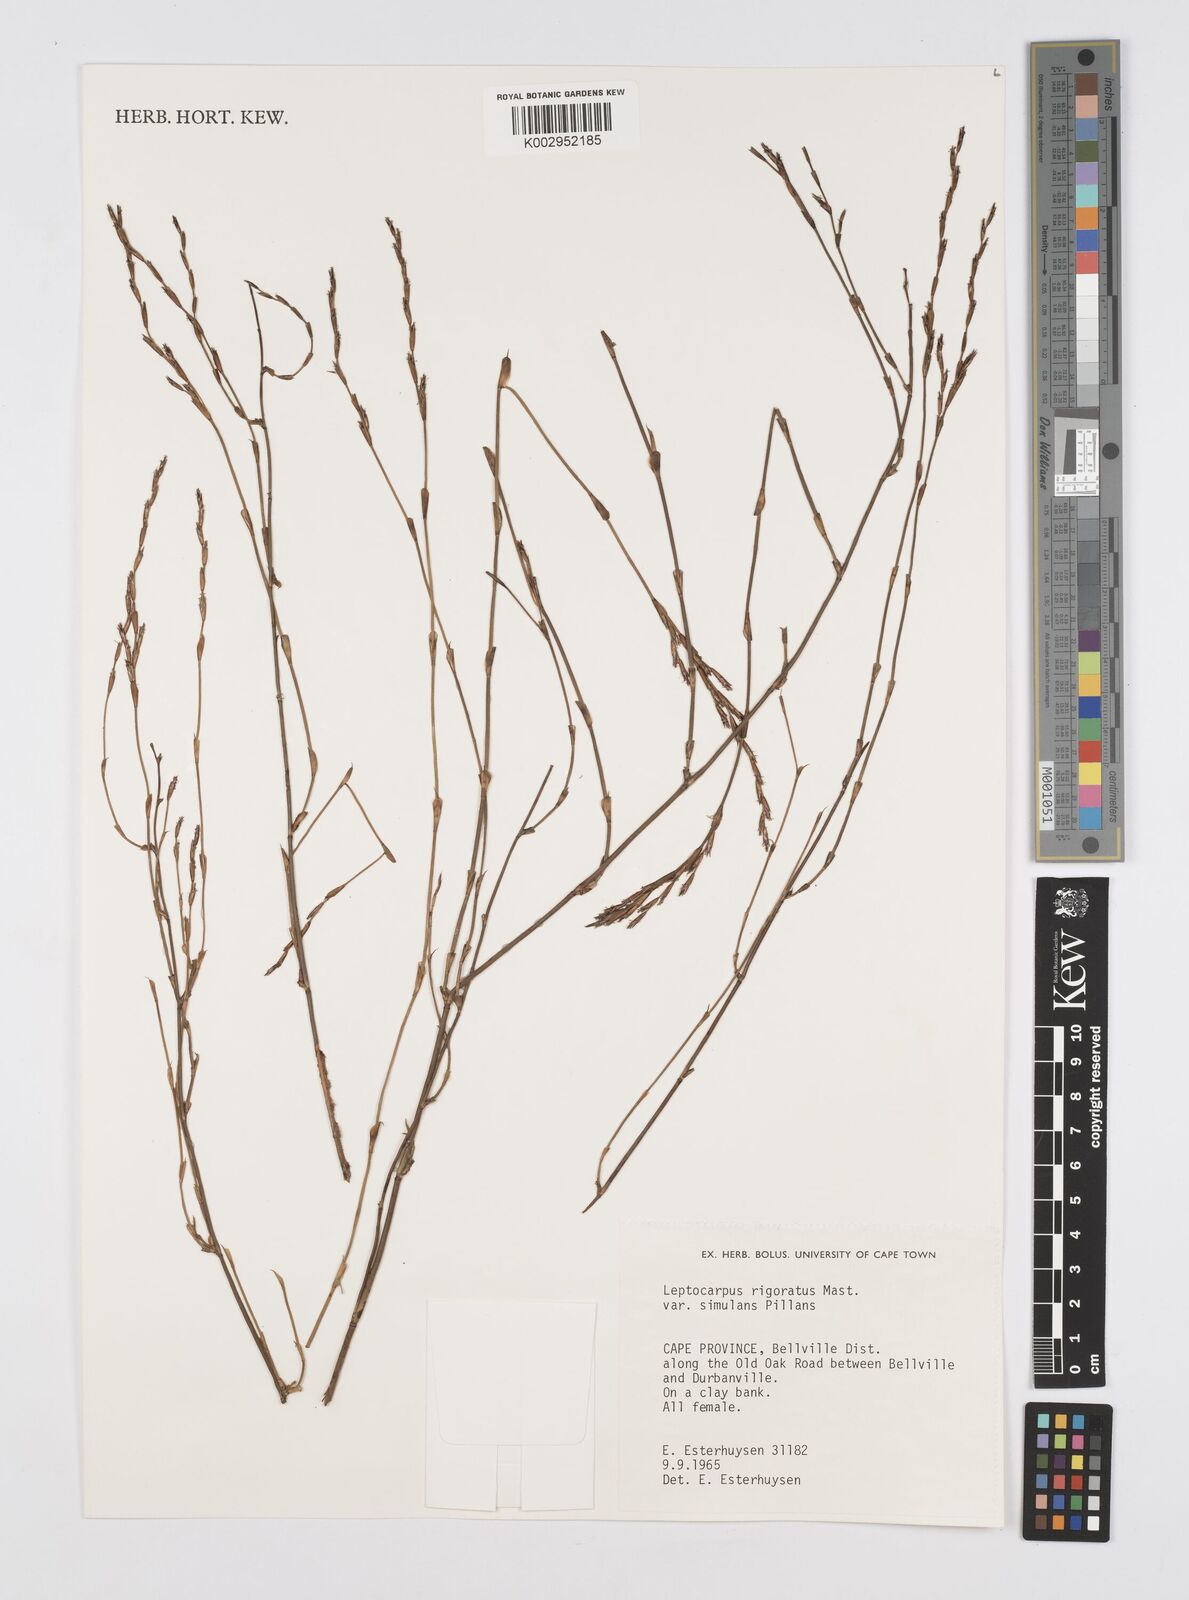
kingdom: Plantae
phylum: Tracheophyta
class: Liliopsida
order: Poales
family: Restionaceae
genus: Restio
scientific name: Restio rigoratus
